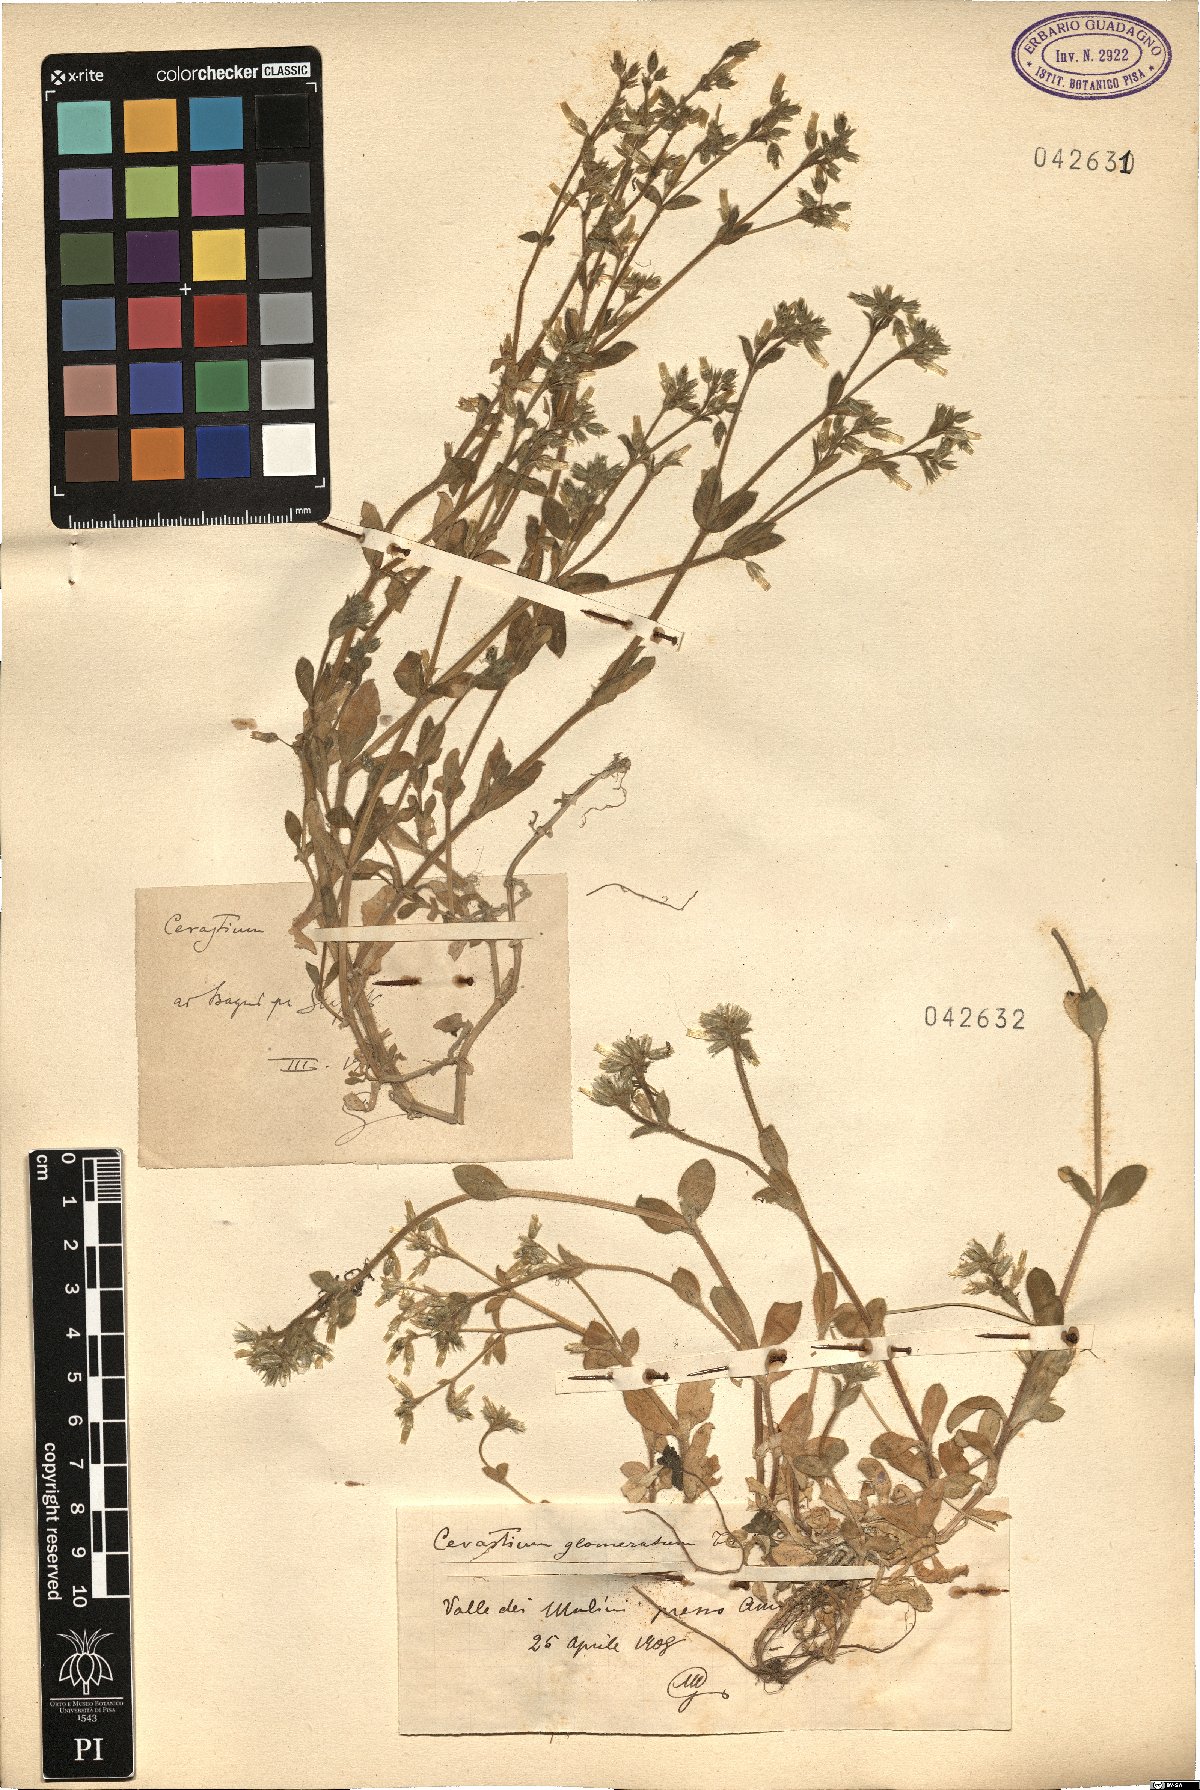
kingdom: Plantae
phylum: Tracheophyta
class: Magnoliopsida
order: Caryophyllales
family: Caryophyllaceae
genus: Cerastium
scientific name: Cerastium
